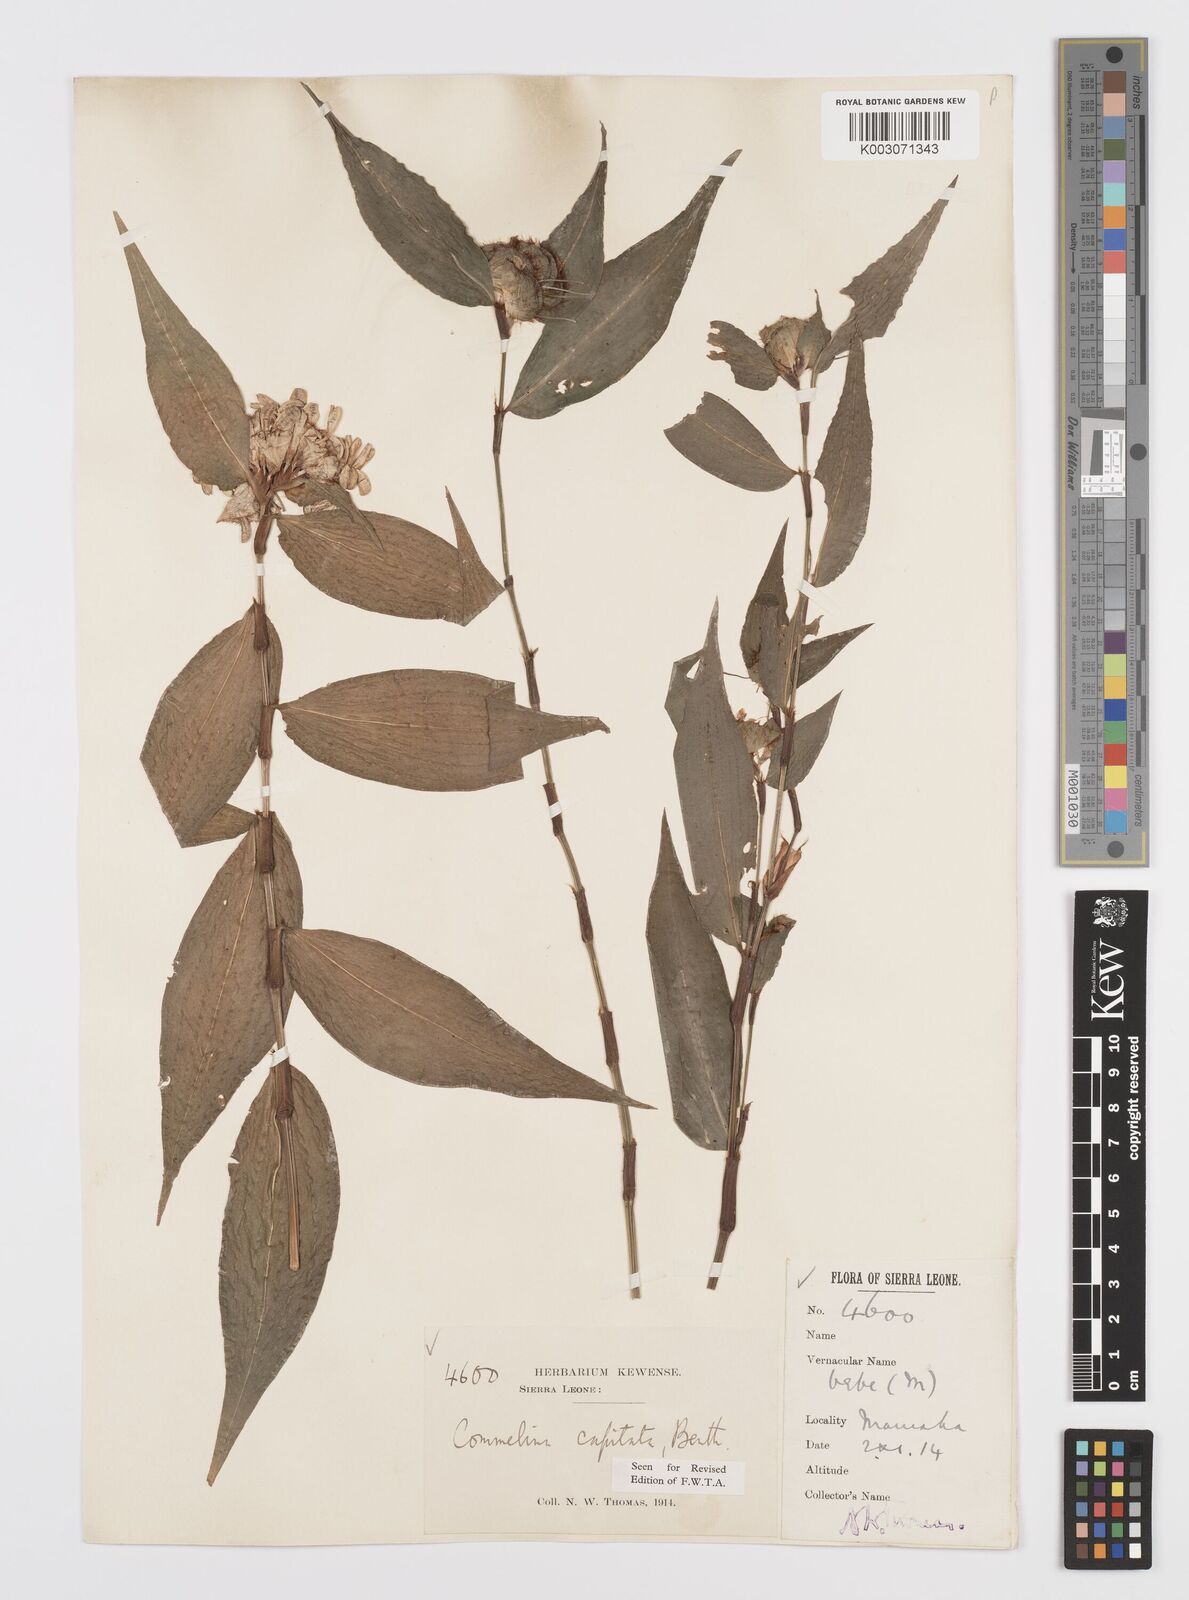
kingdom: Plantae
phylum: Tracheophyta
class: Liliopsida
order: Commelinales
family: Commelinaceae
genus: Commelina
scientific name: Commelina capitata
